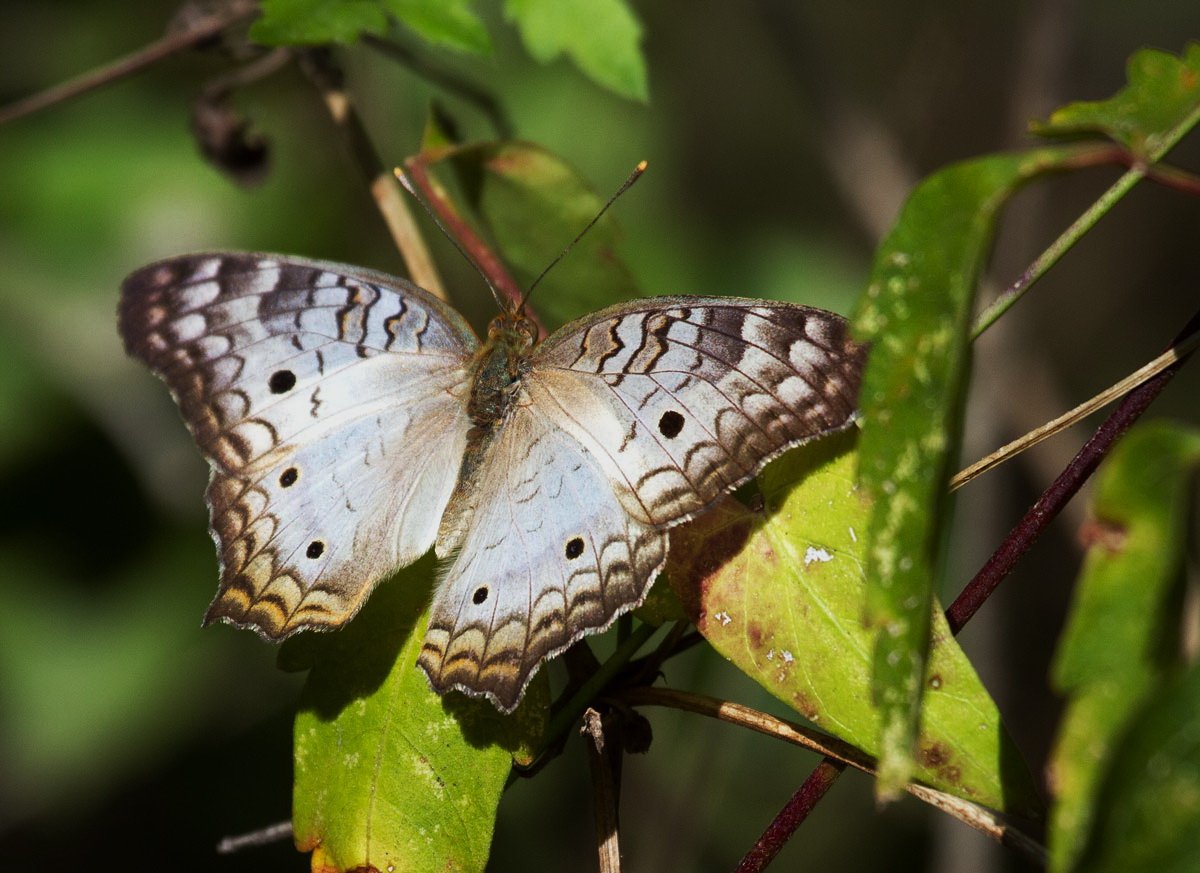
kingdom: Animalia
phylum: Arthropoda
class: Insecta
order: Lepidoptera
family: Nymphalidae
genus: Anartia
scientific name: Anartia jatrophae
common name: White Peacock
